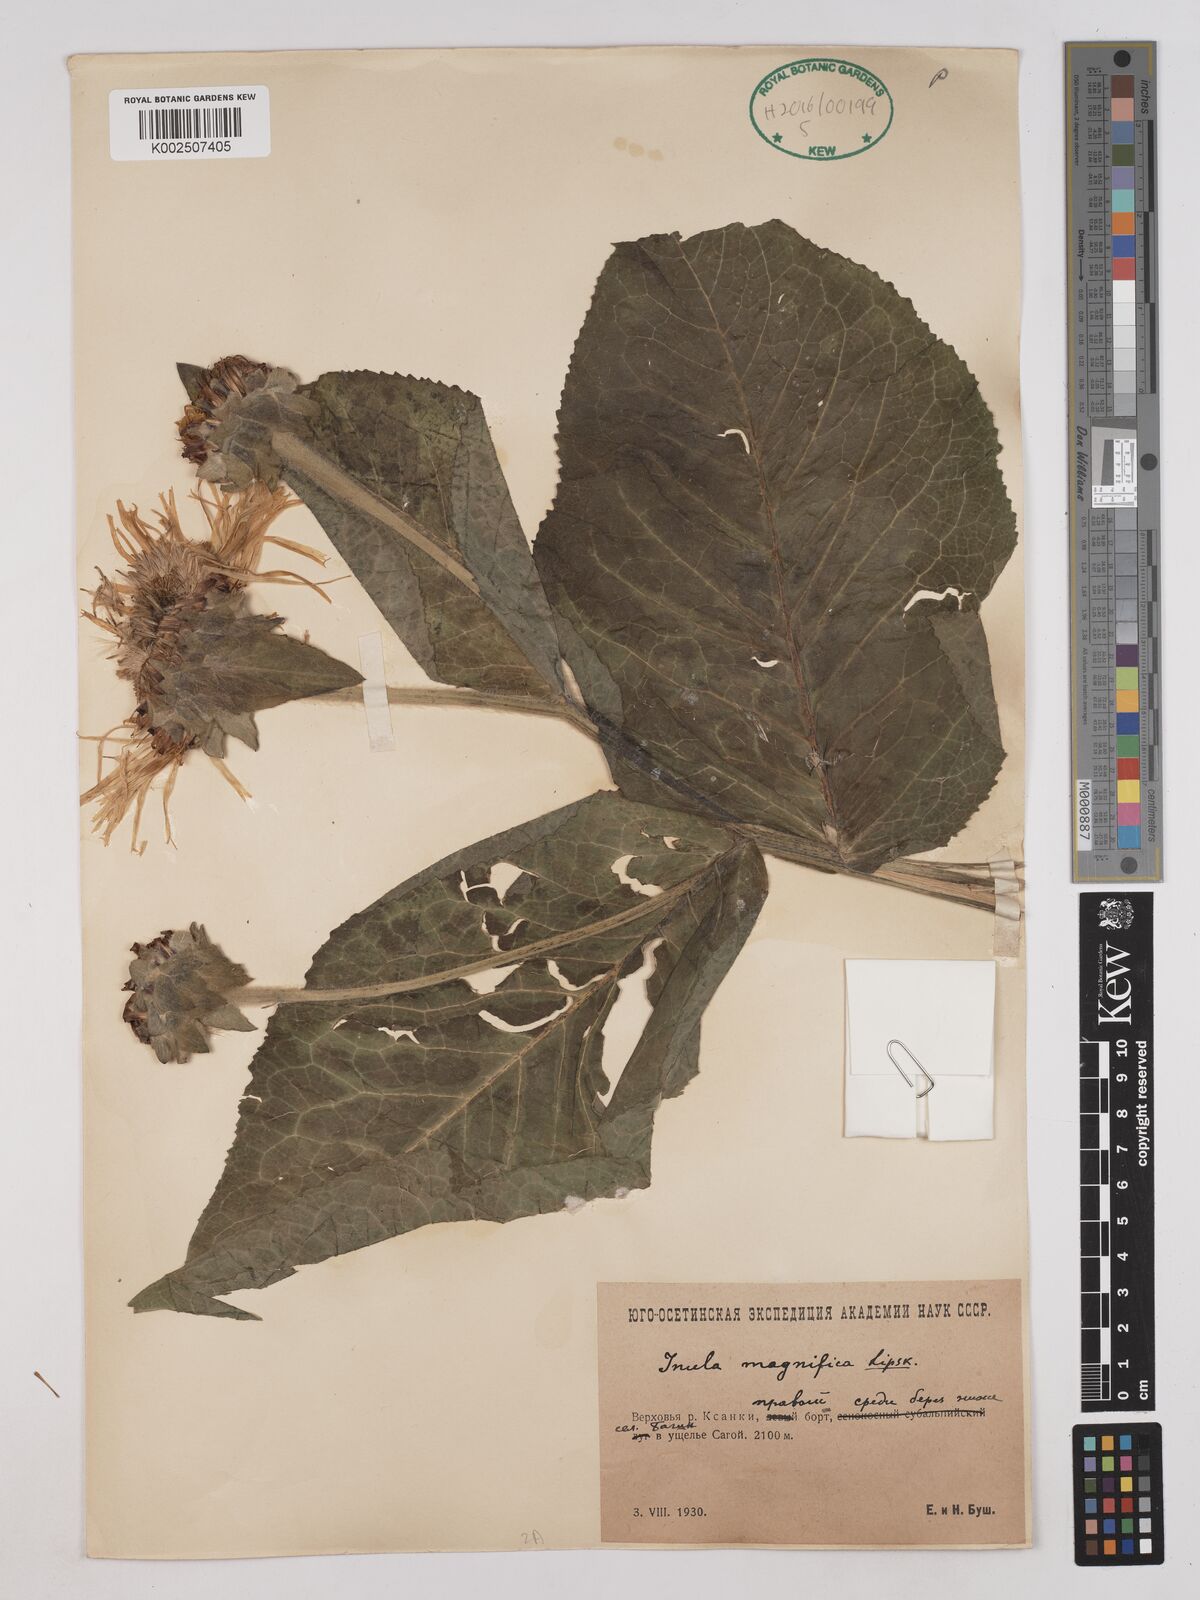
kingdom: Plantae
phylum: Tracheophyta
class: Magnoliopsida
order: Asterales
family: Asteraceae
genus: Inula
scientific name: Inula magnifica
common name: Giant fleabane
